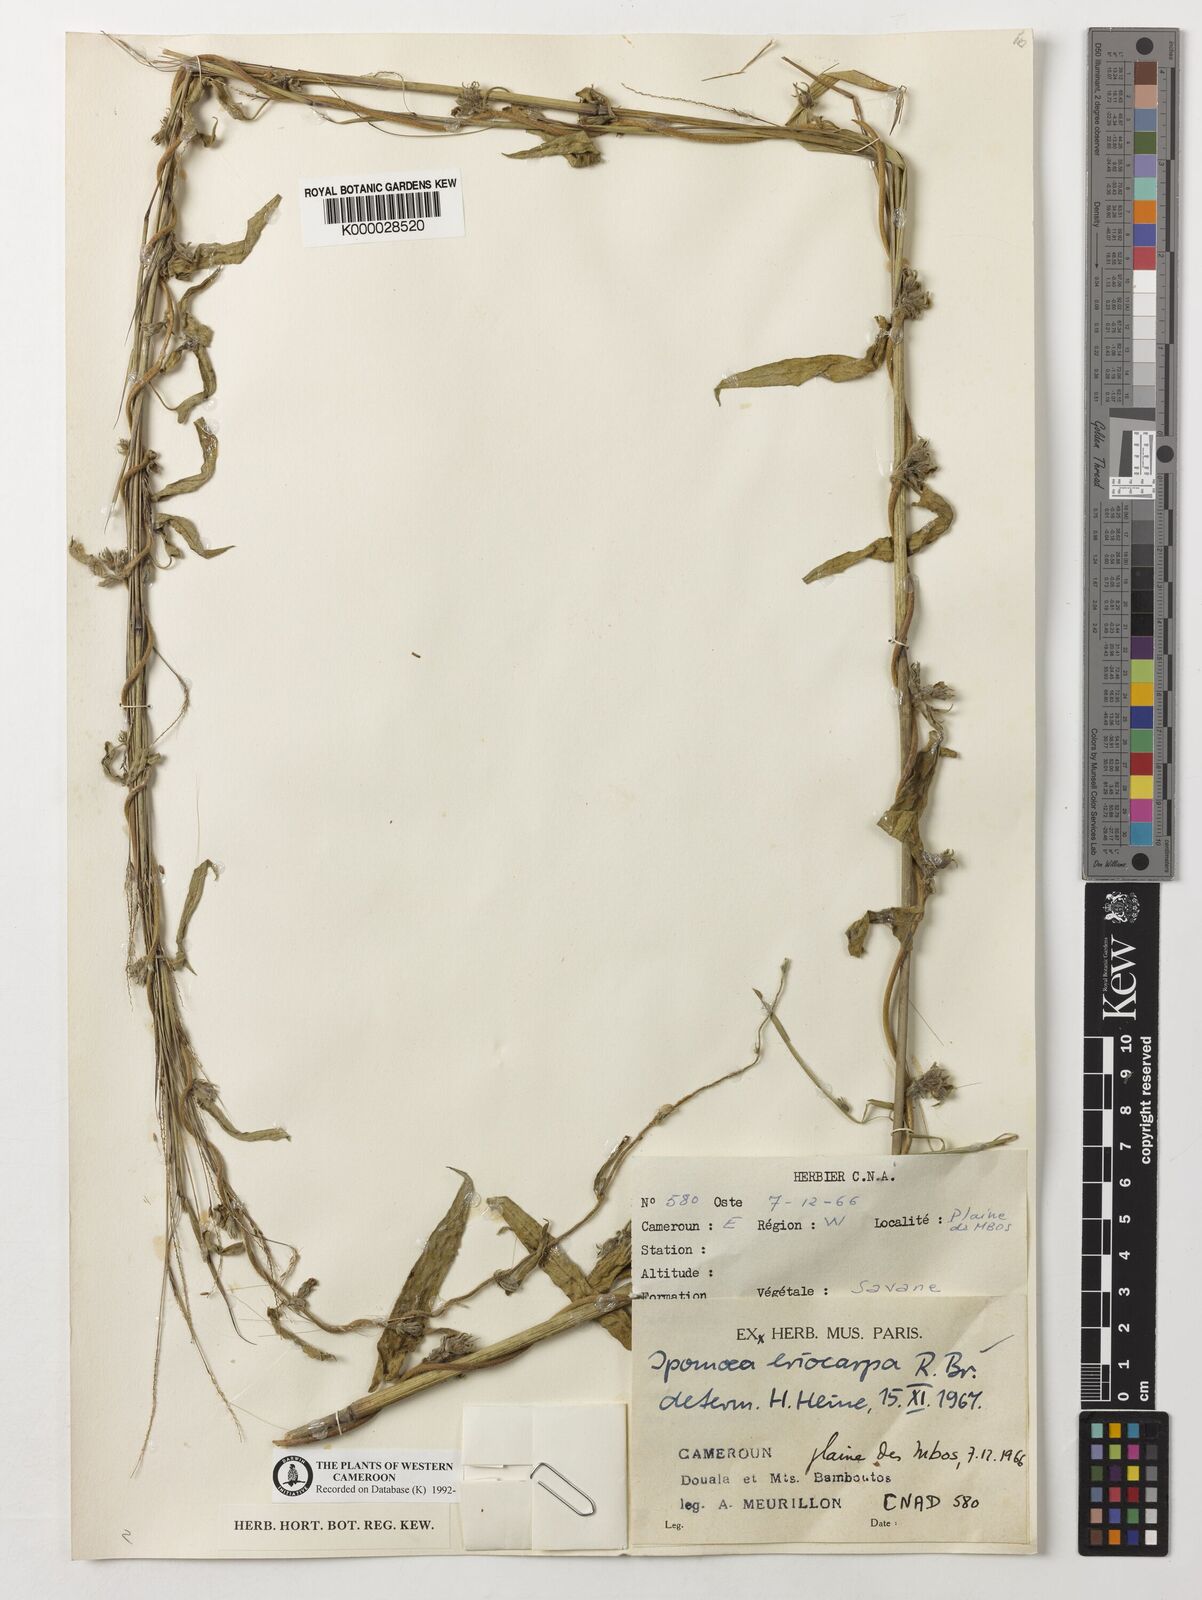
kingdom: Plantae
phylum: Tracheophyta
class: Magnoliopsida
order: Solanales
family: Convolvulaceae
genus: Ipomoea
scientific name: Ipomoea eriocarpa
